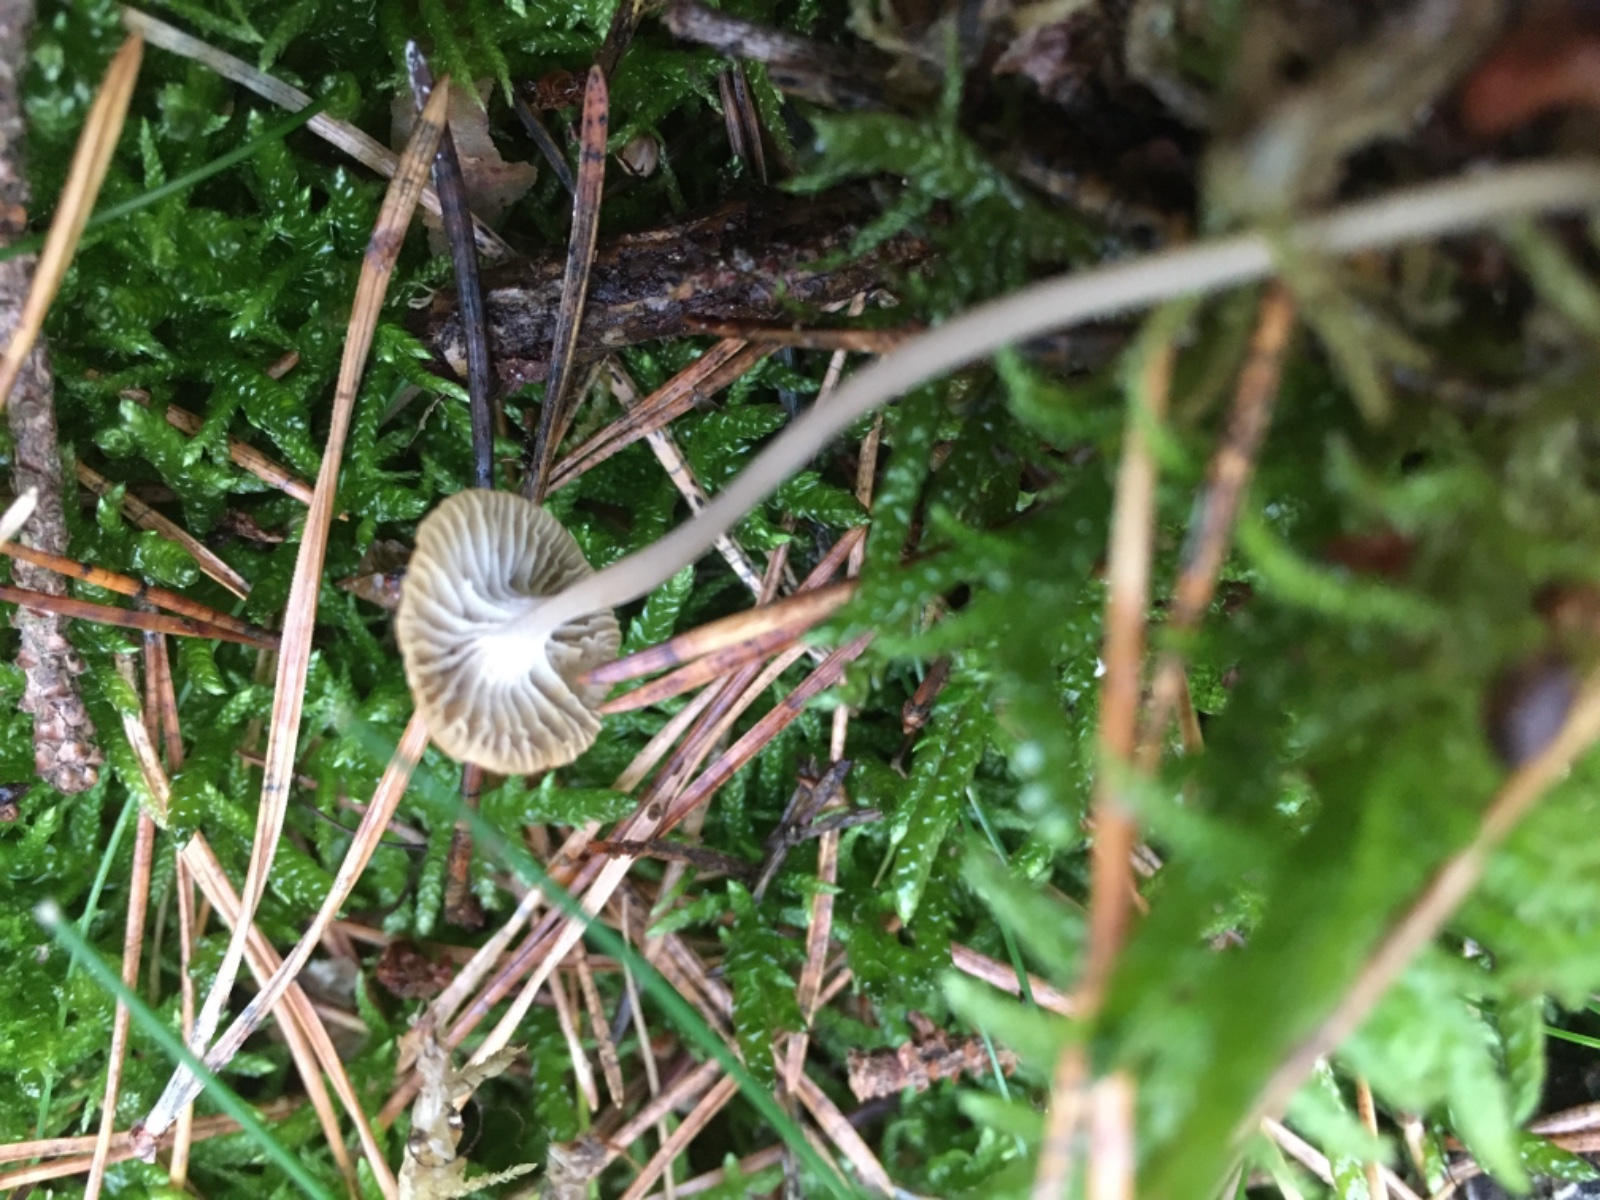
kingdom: Fungi
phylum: Basidiomycota
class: Agaricomycetes
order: Agaricales
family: Mycenaceae
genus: Mycena
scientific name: Mycena cinerella
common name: mel-huesvamp
